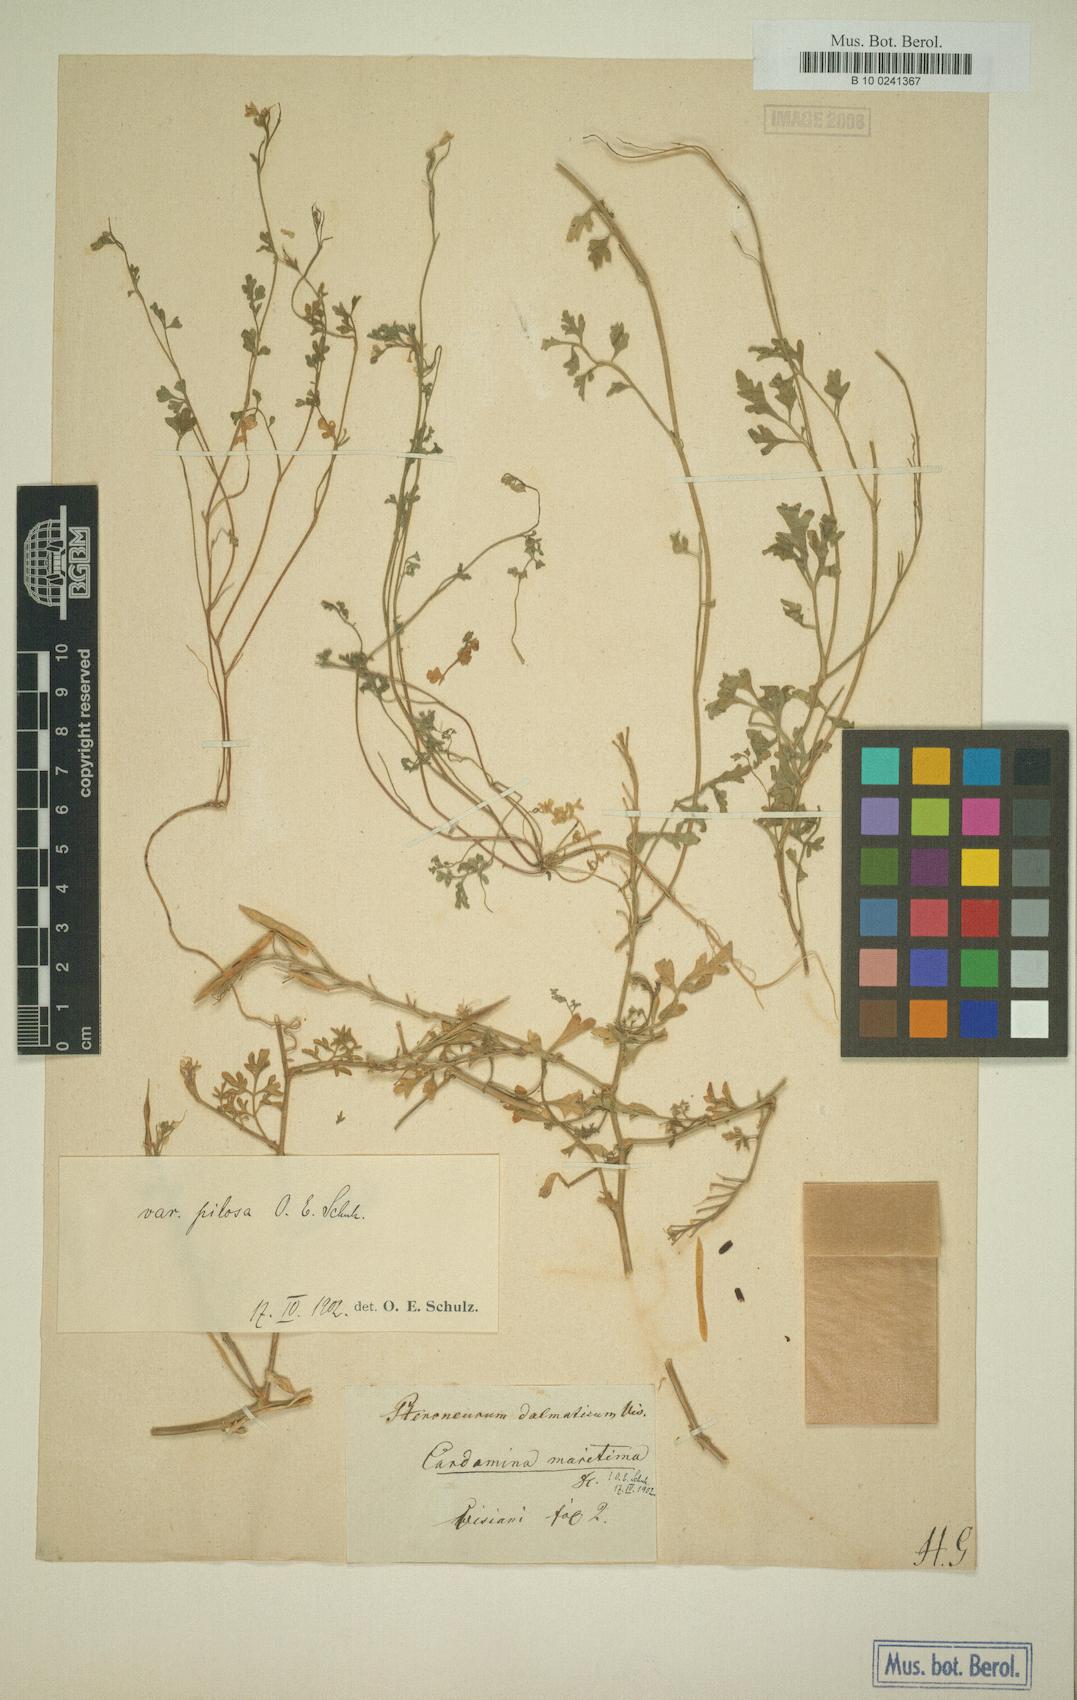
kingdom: Plantae
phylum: Tracheophyta
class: Magnoliopsida
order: Brassicales
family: Brassicaceae
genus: Cardamine
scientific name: Cardamine maritima
